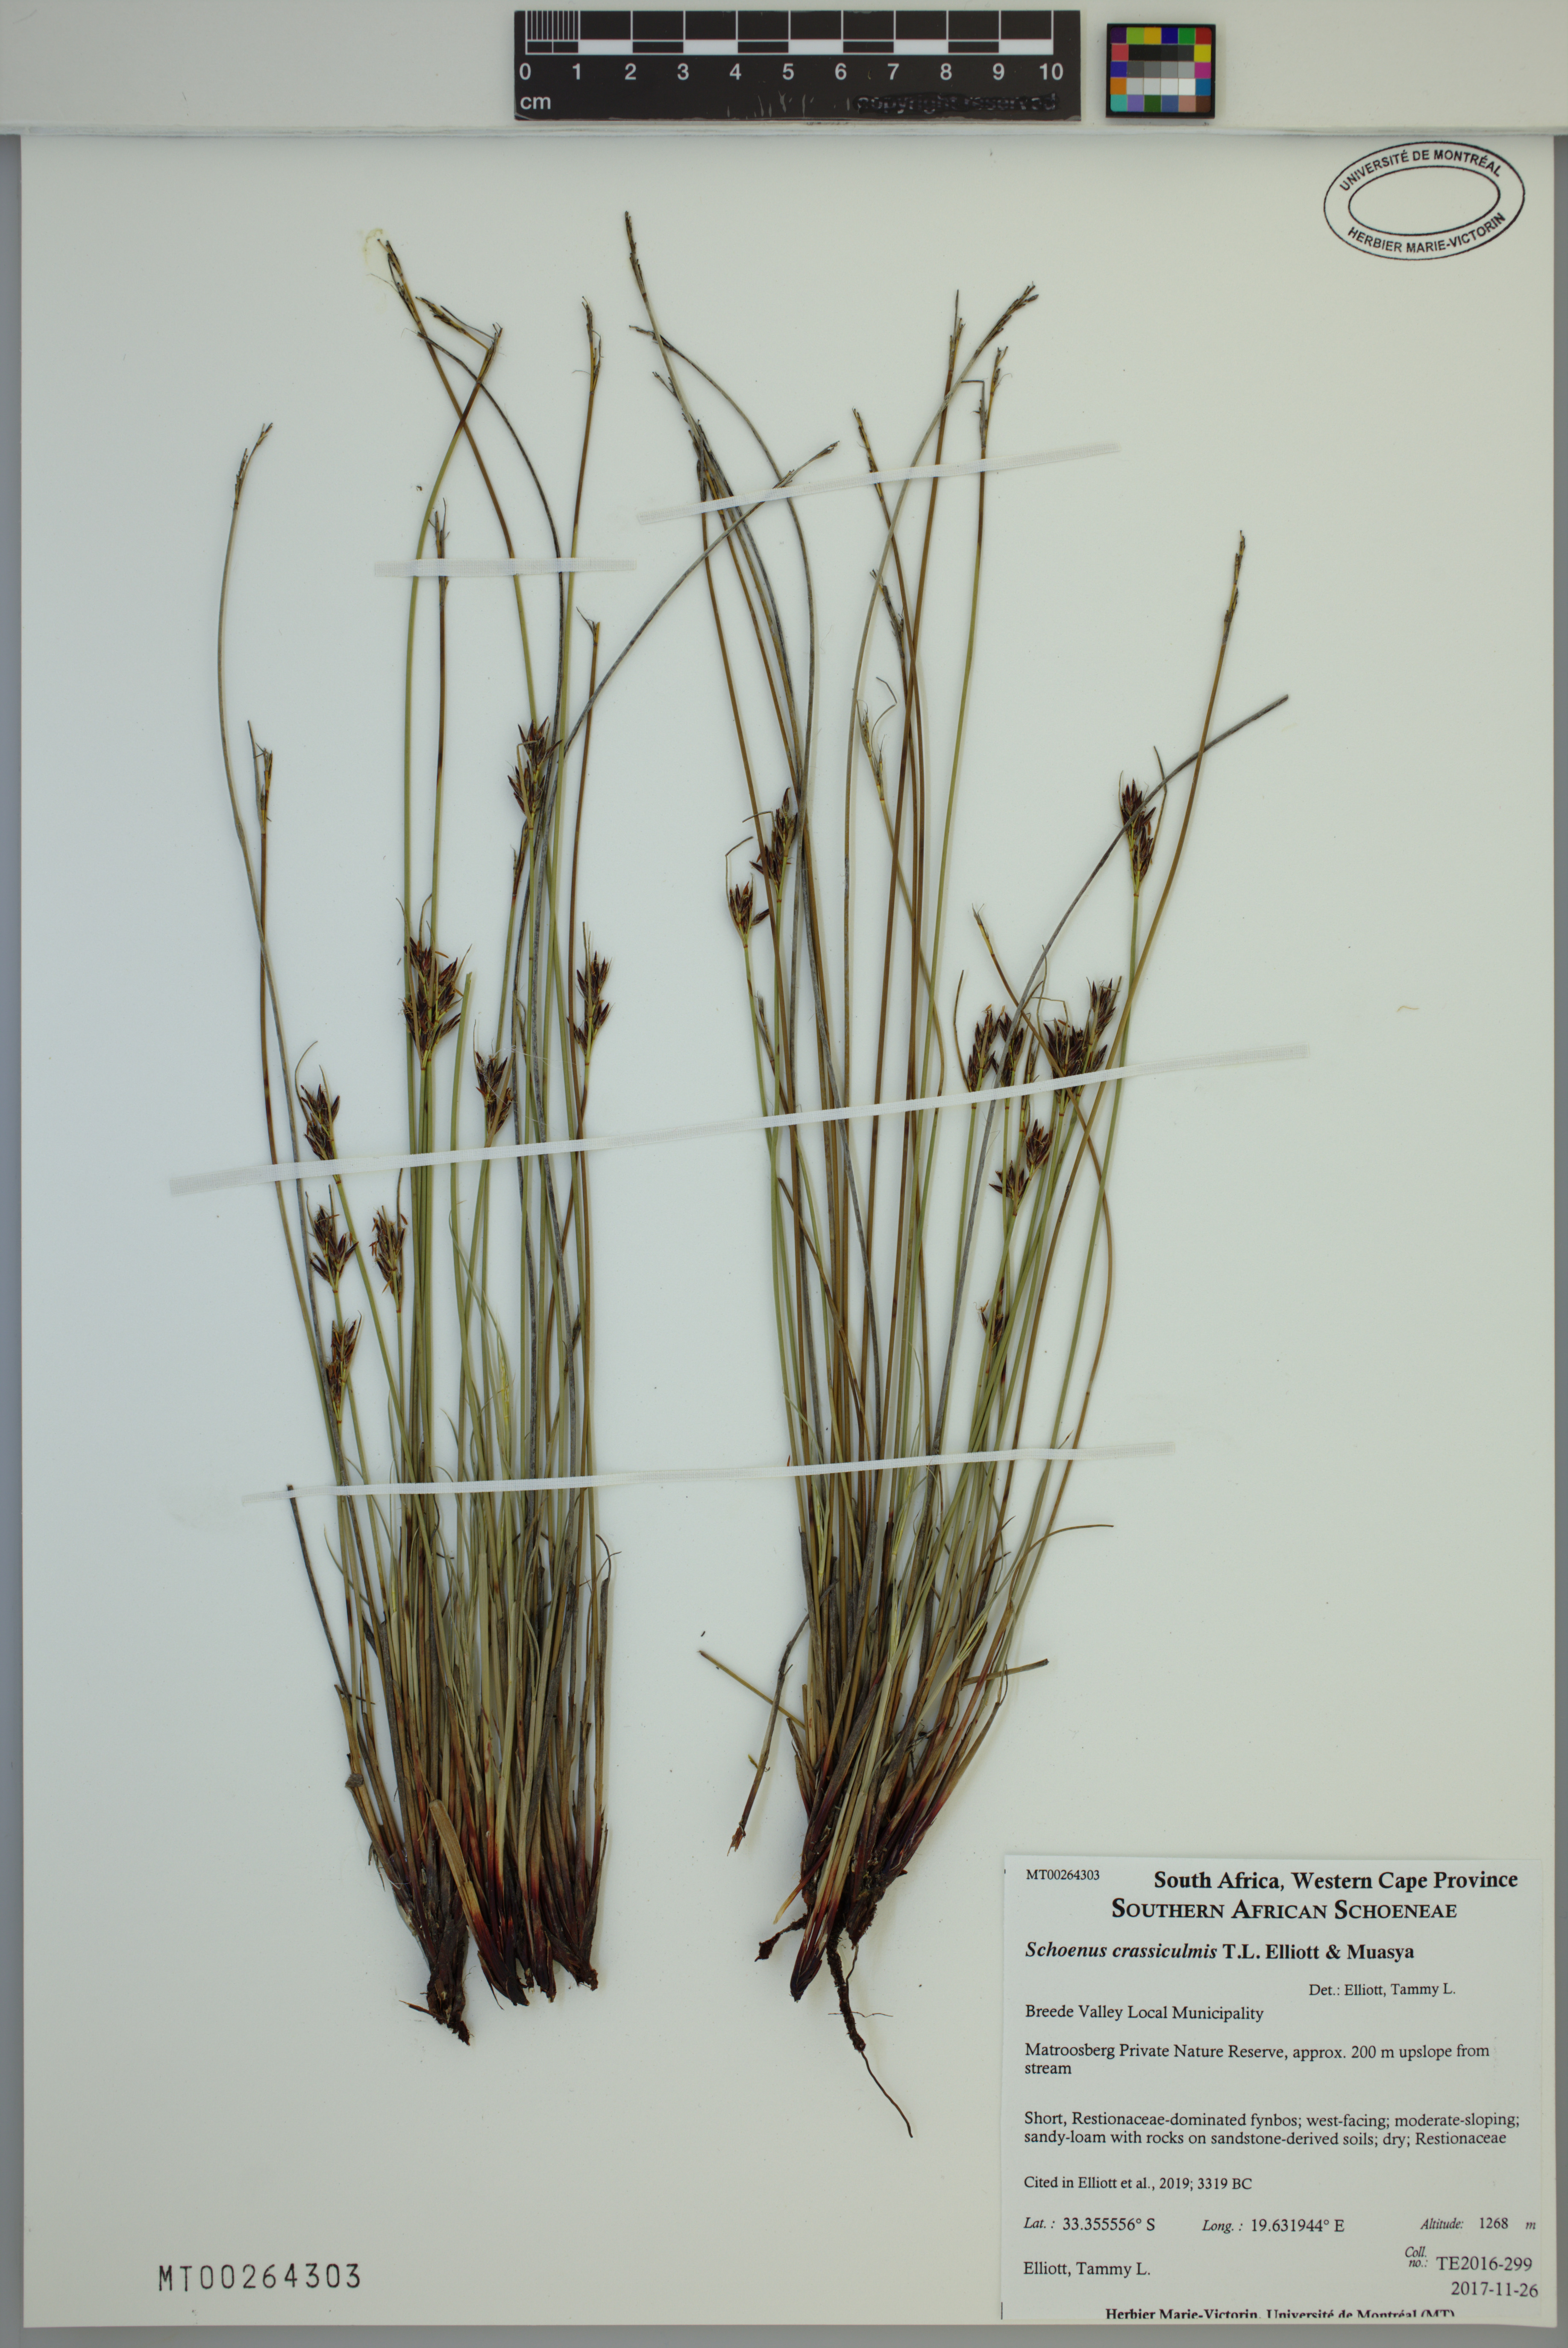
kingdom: Plantae
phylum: Tracheophyta
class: Liliopsida
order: Poales
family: Cyperaceae
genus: Schoenus
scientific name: Schoenus crassiculmis
